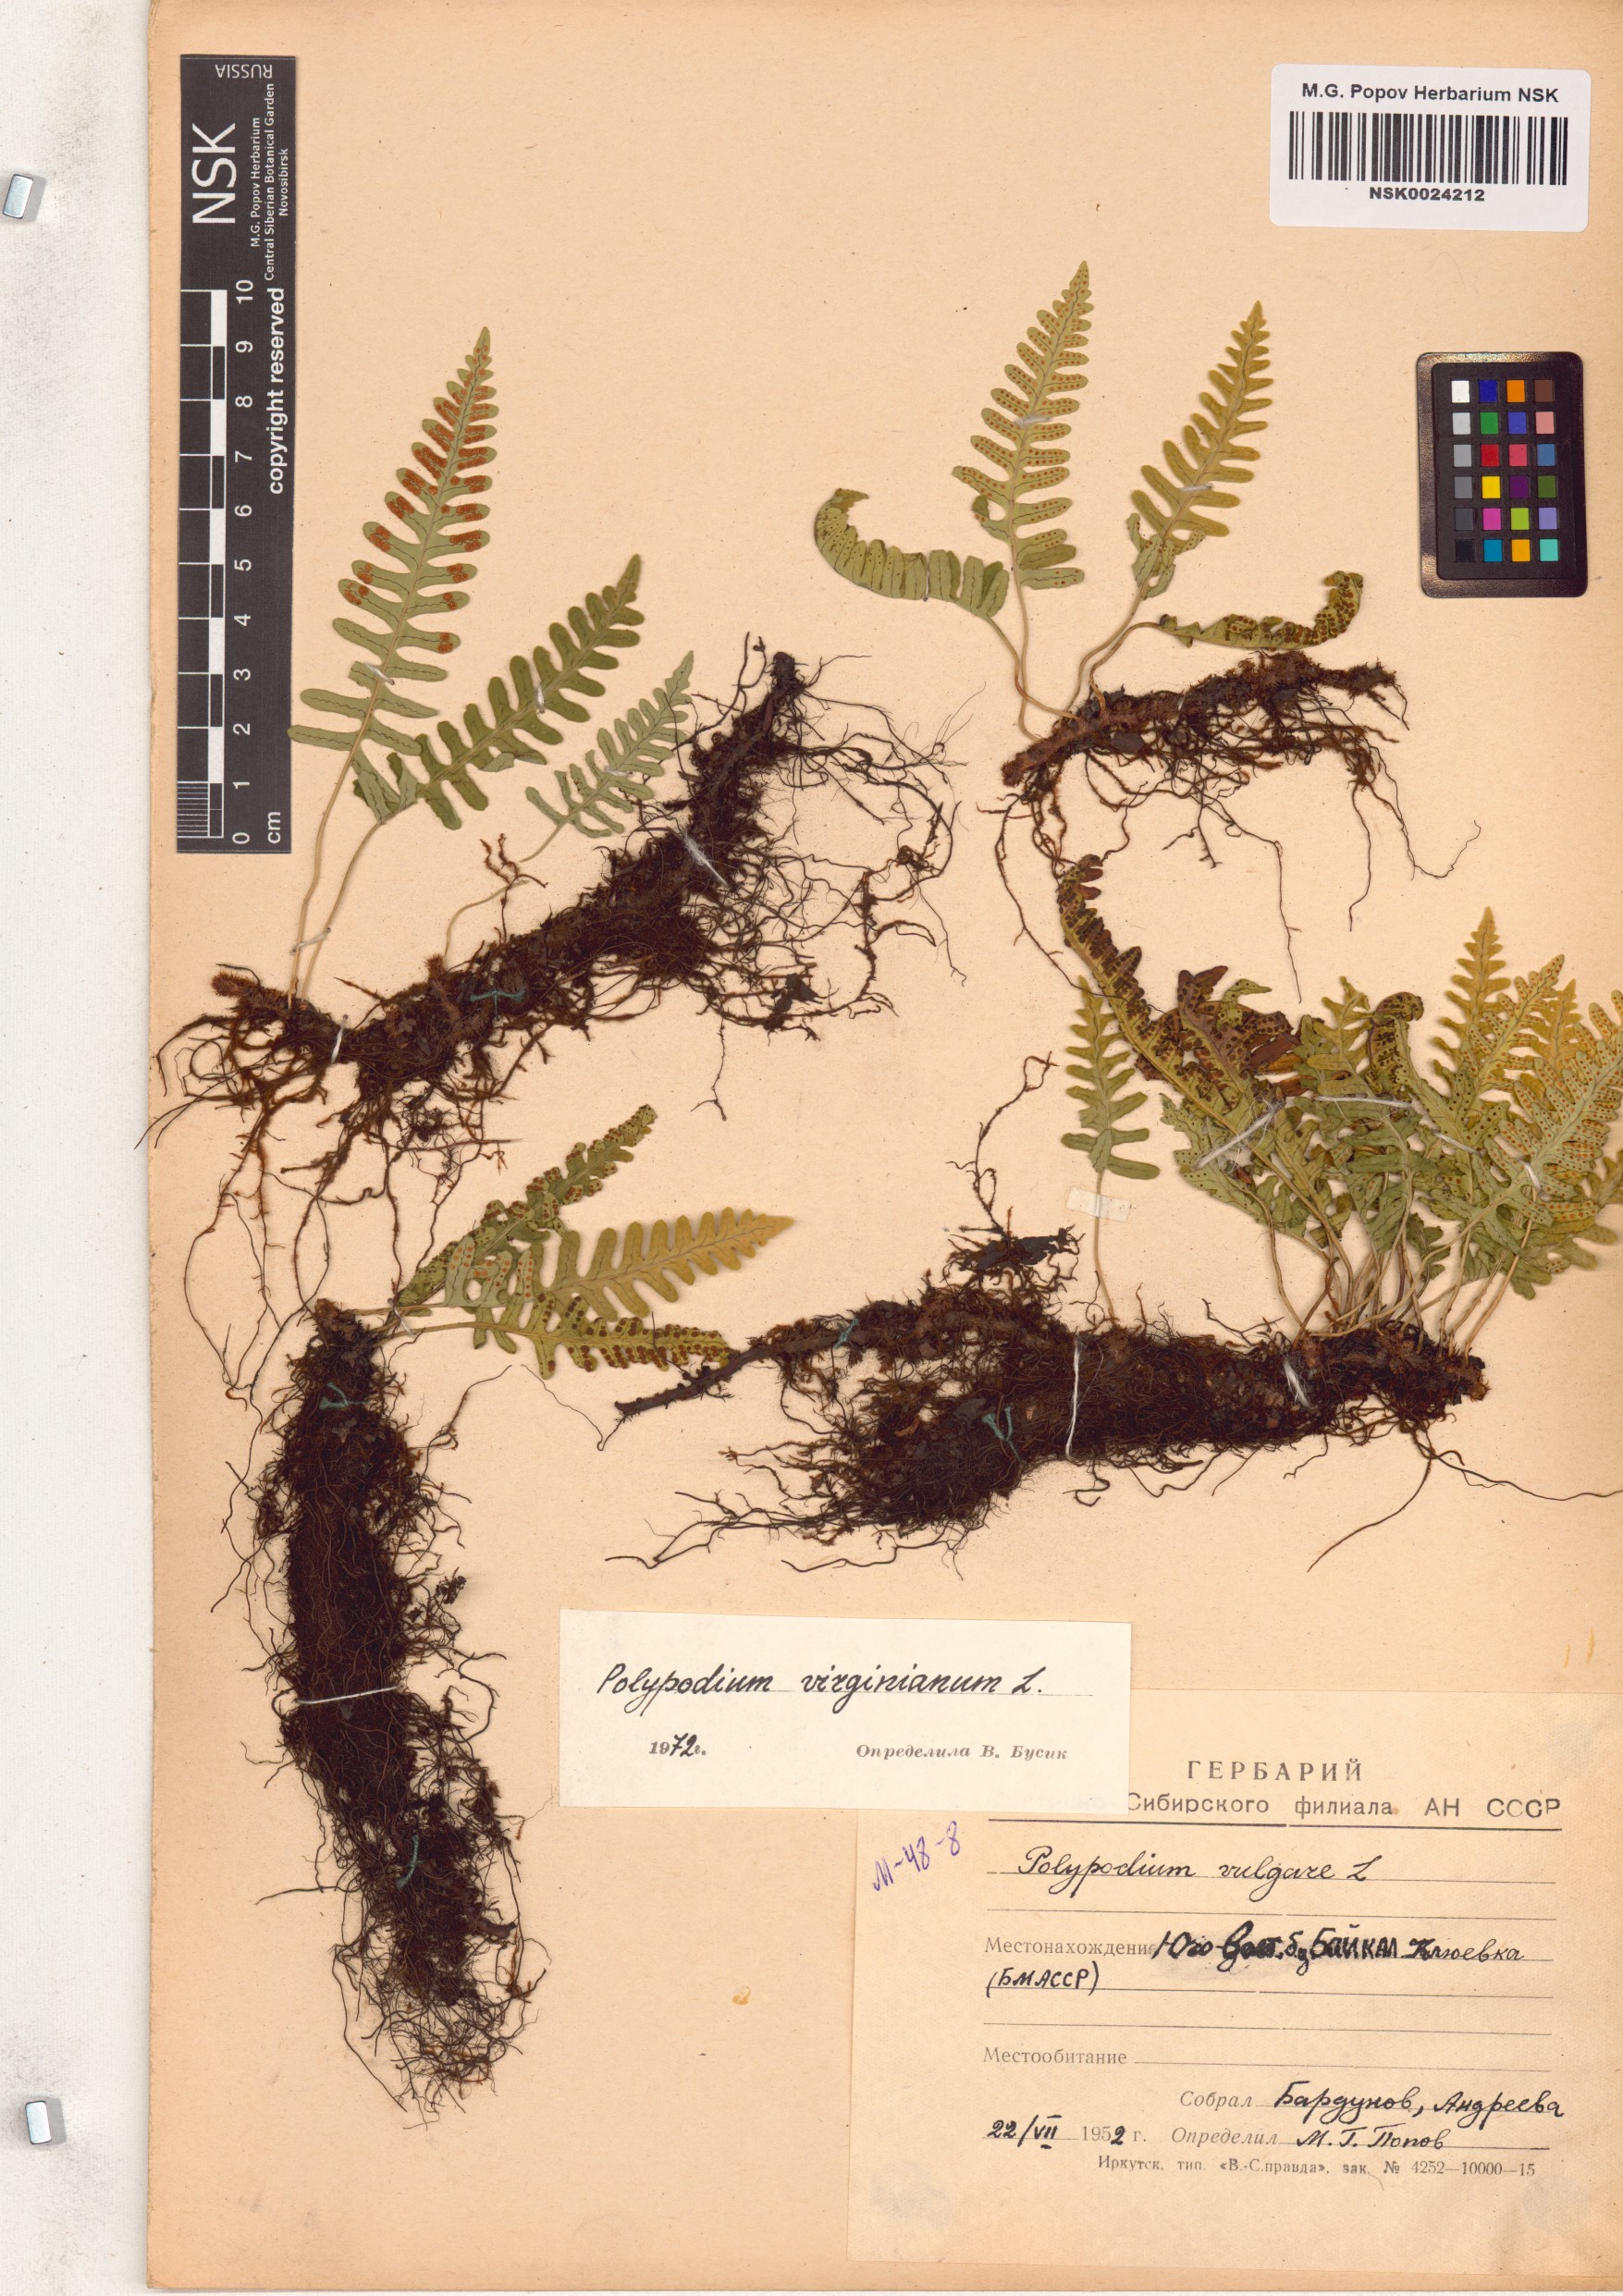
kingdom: Plantae
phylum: Tracheophyta
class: Polypodiopsida
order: Polypodiales
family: Polypodiaceae
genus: Polypodium
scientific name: Polypodium virginianum
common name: American wall fern
